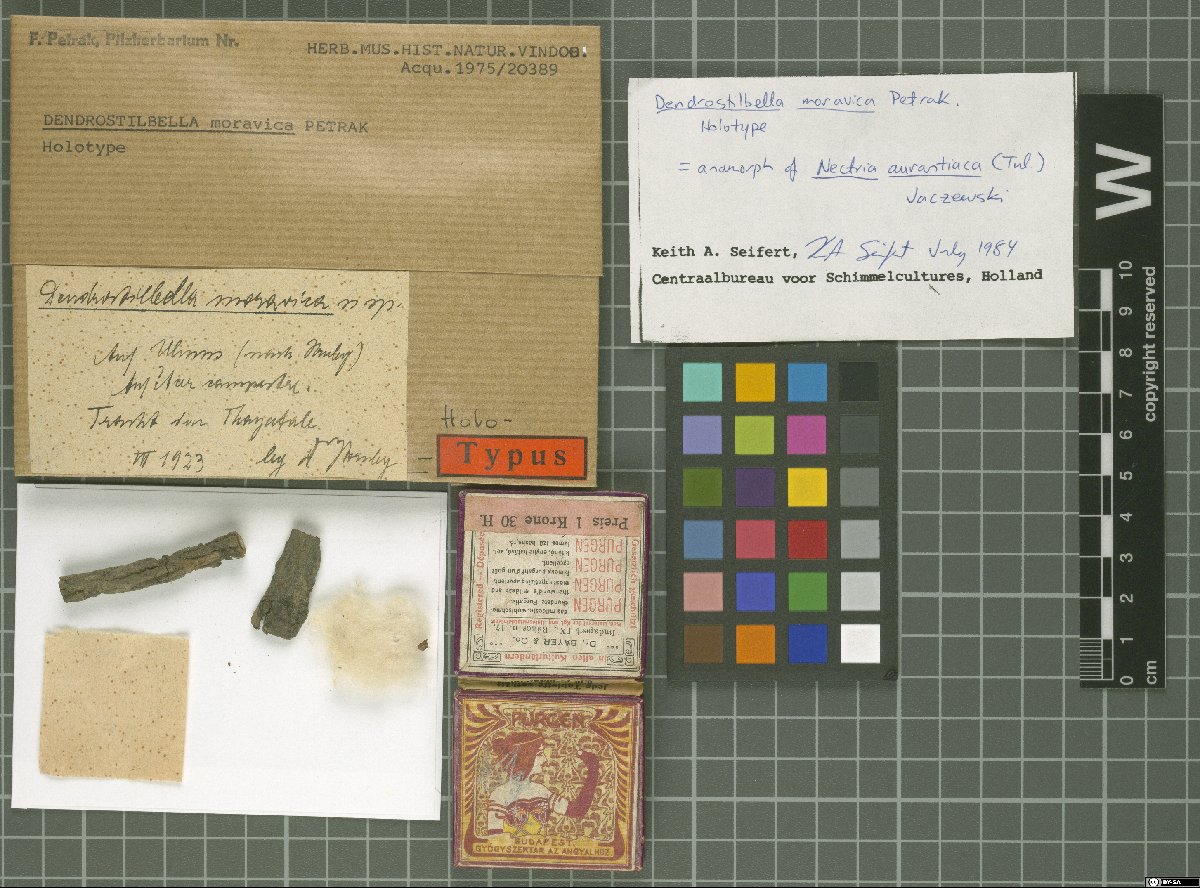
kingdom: Fungi
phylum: Ascomycota
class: Leotiomycetes
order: Leotiales
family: Tympanidaceae
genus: Dendrostilbella
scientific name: Dendrostilbella moravica
